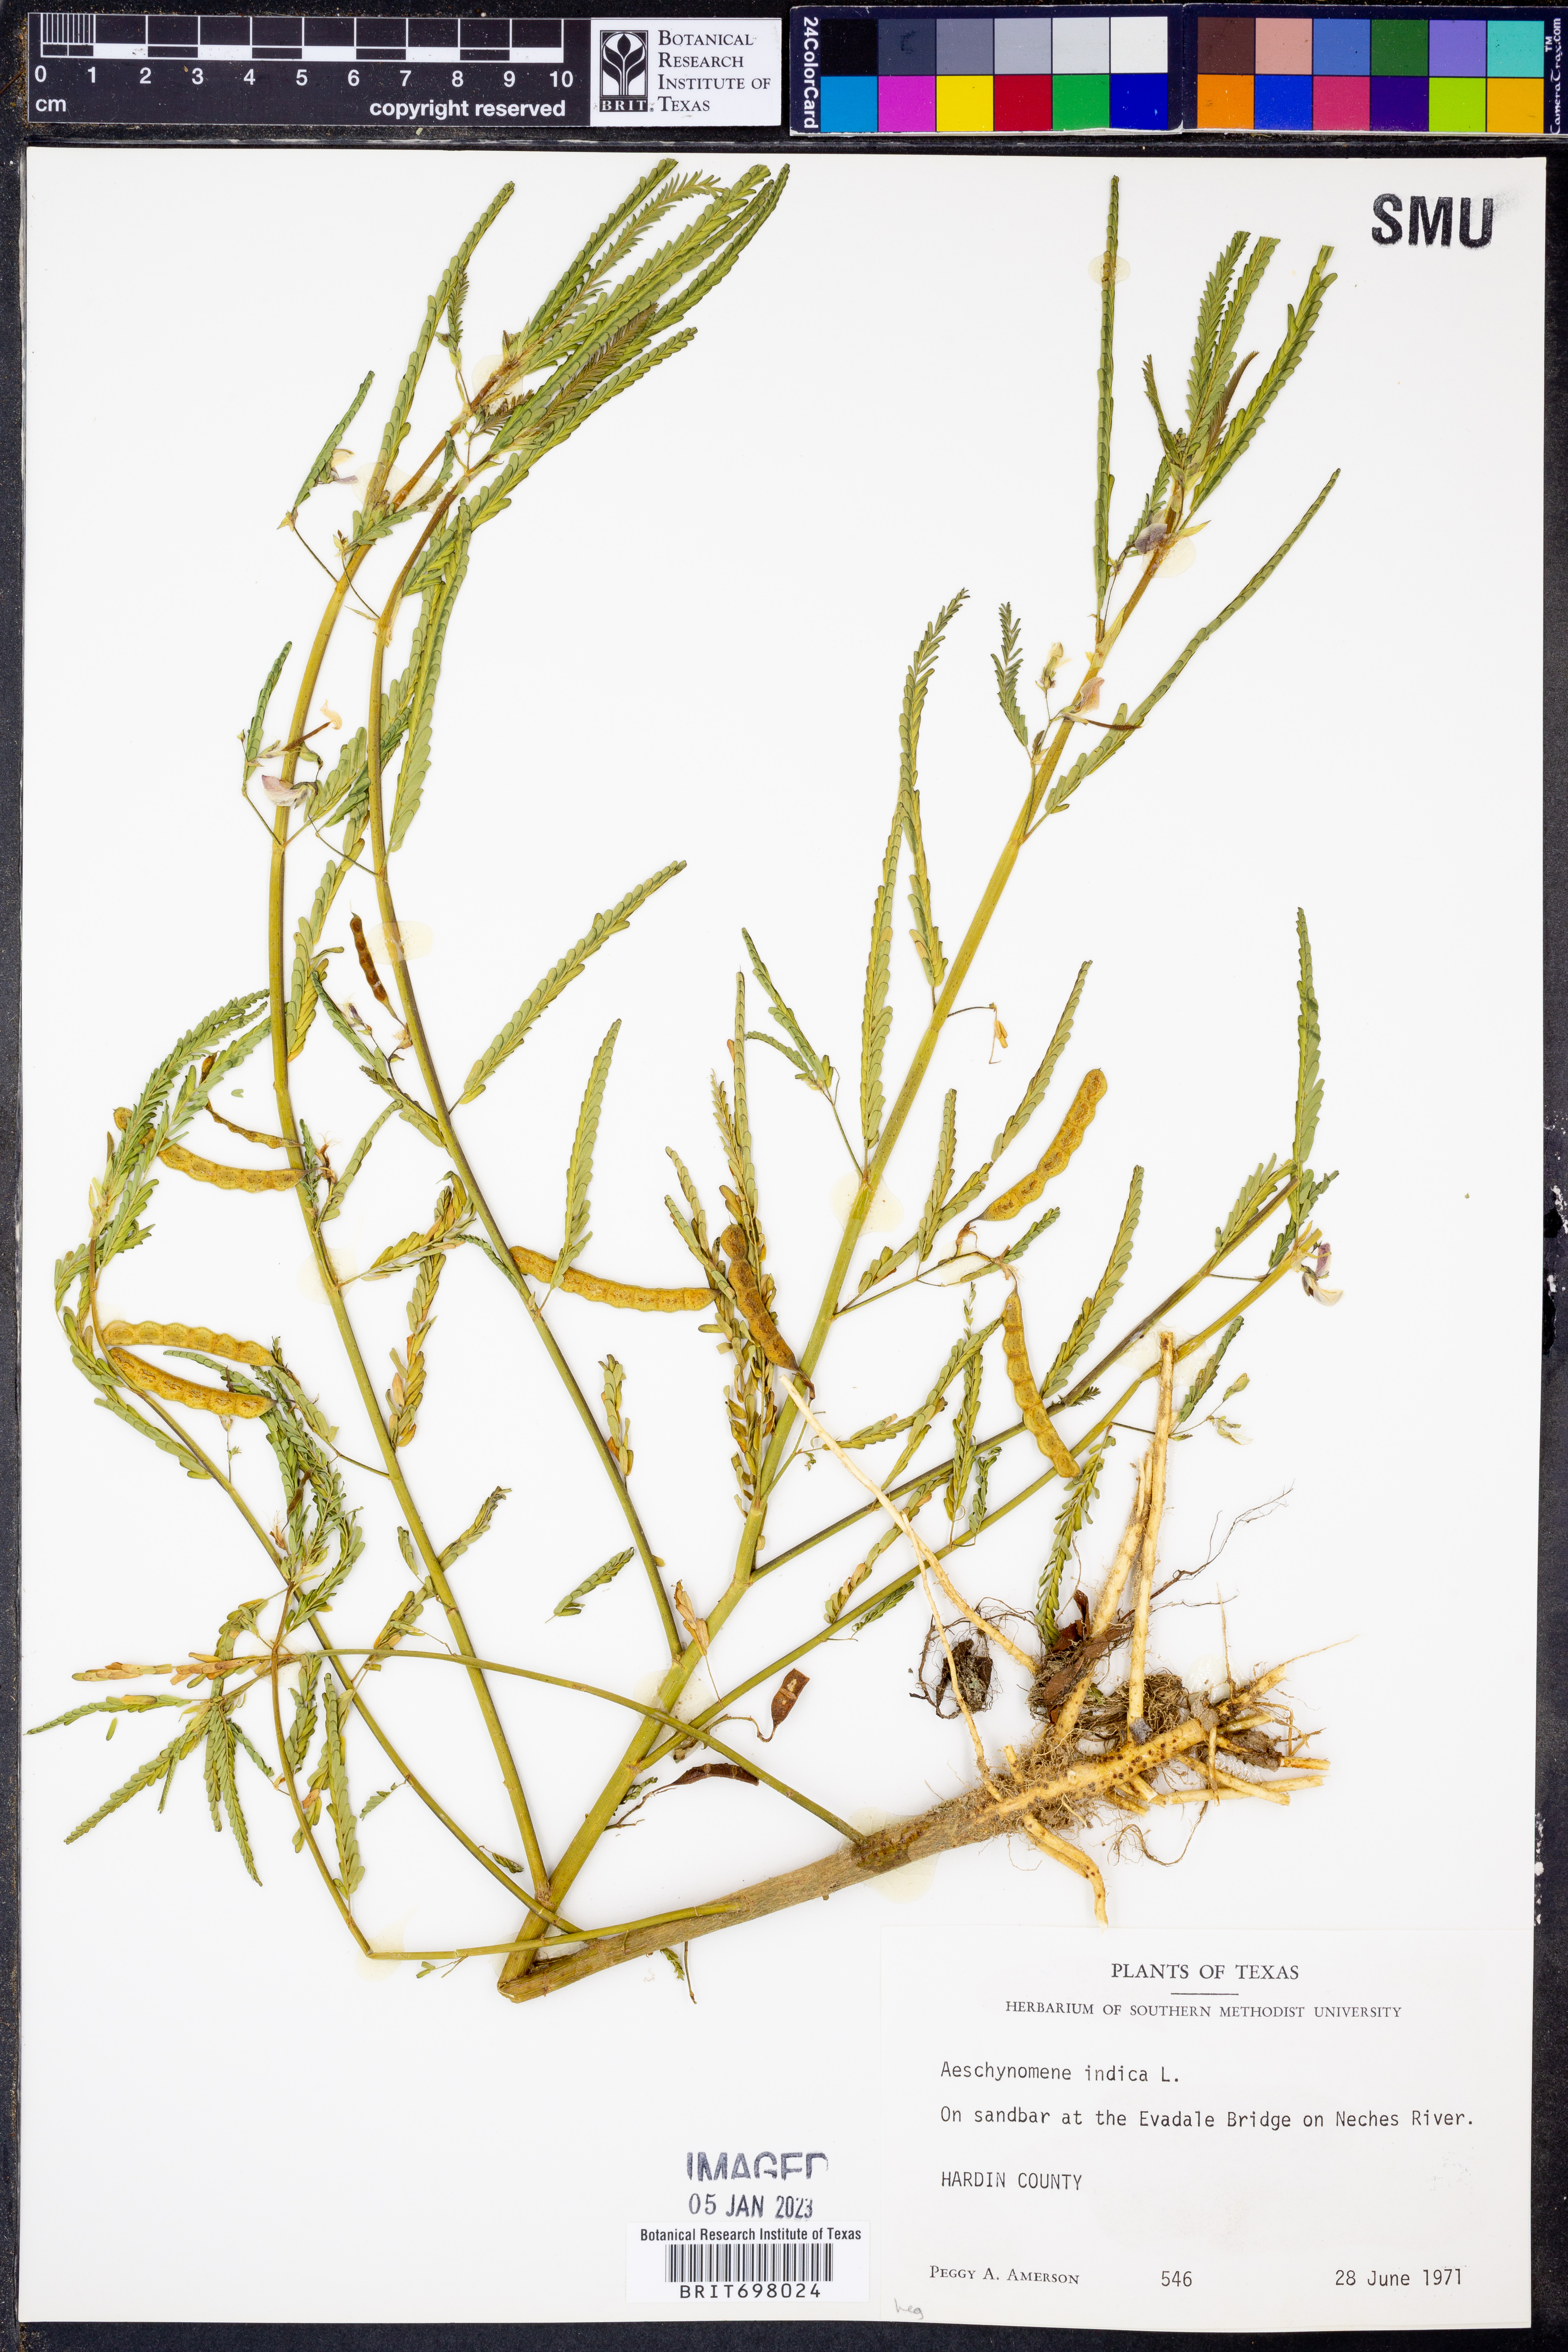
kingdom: Plantae
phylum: Tracheophyta
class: Magnoliopsida
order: Fabales
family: Fabaceae
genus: Aeschynomene
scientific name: Aeschynomene indica
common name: Indian jointvetch
